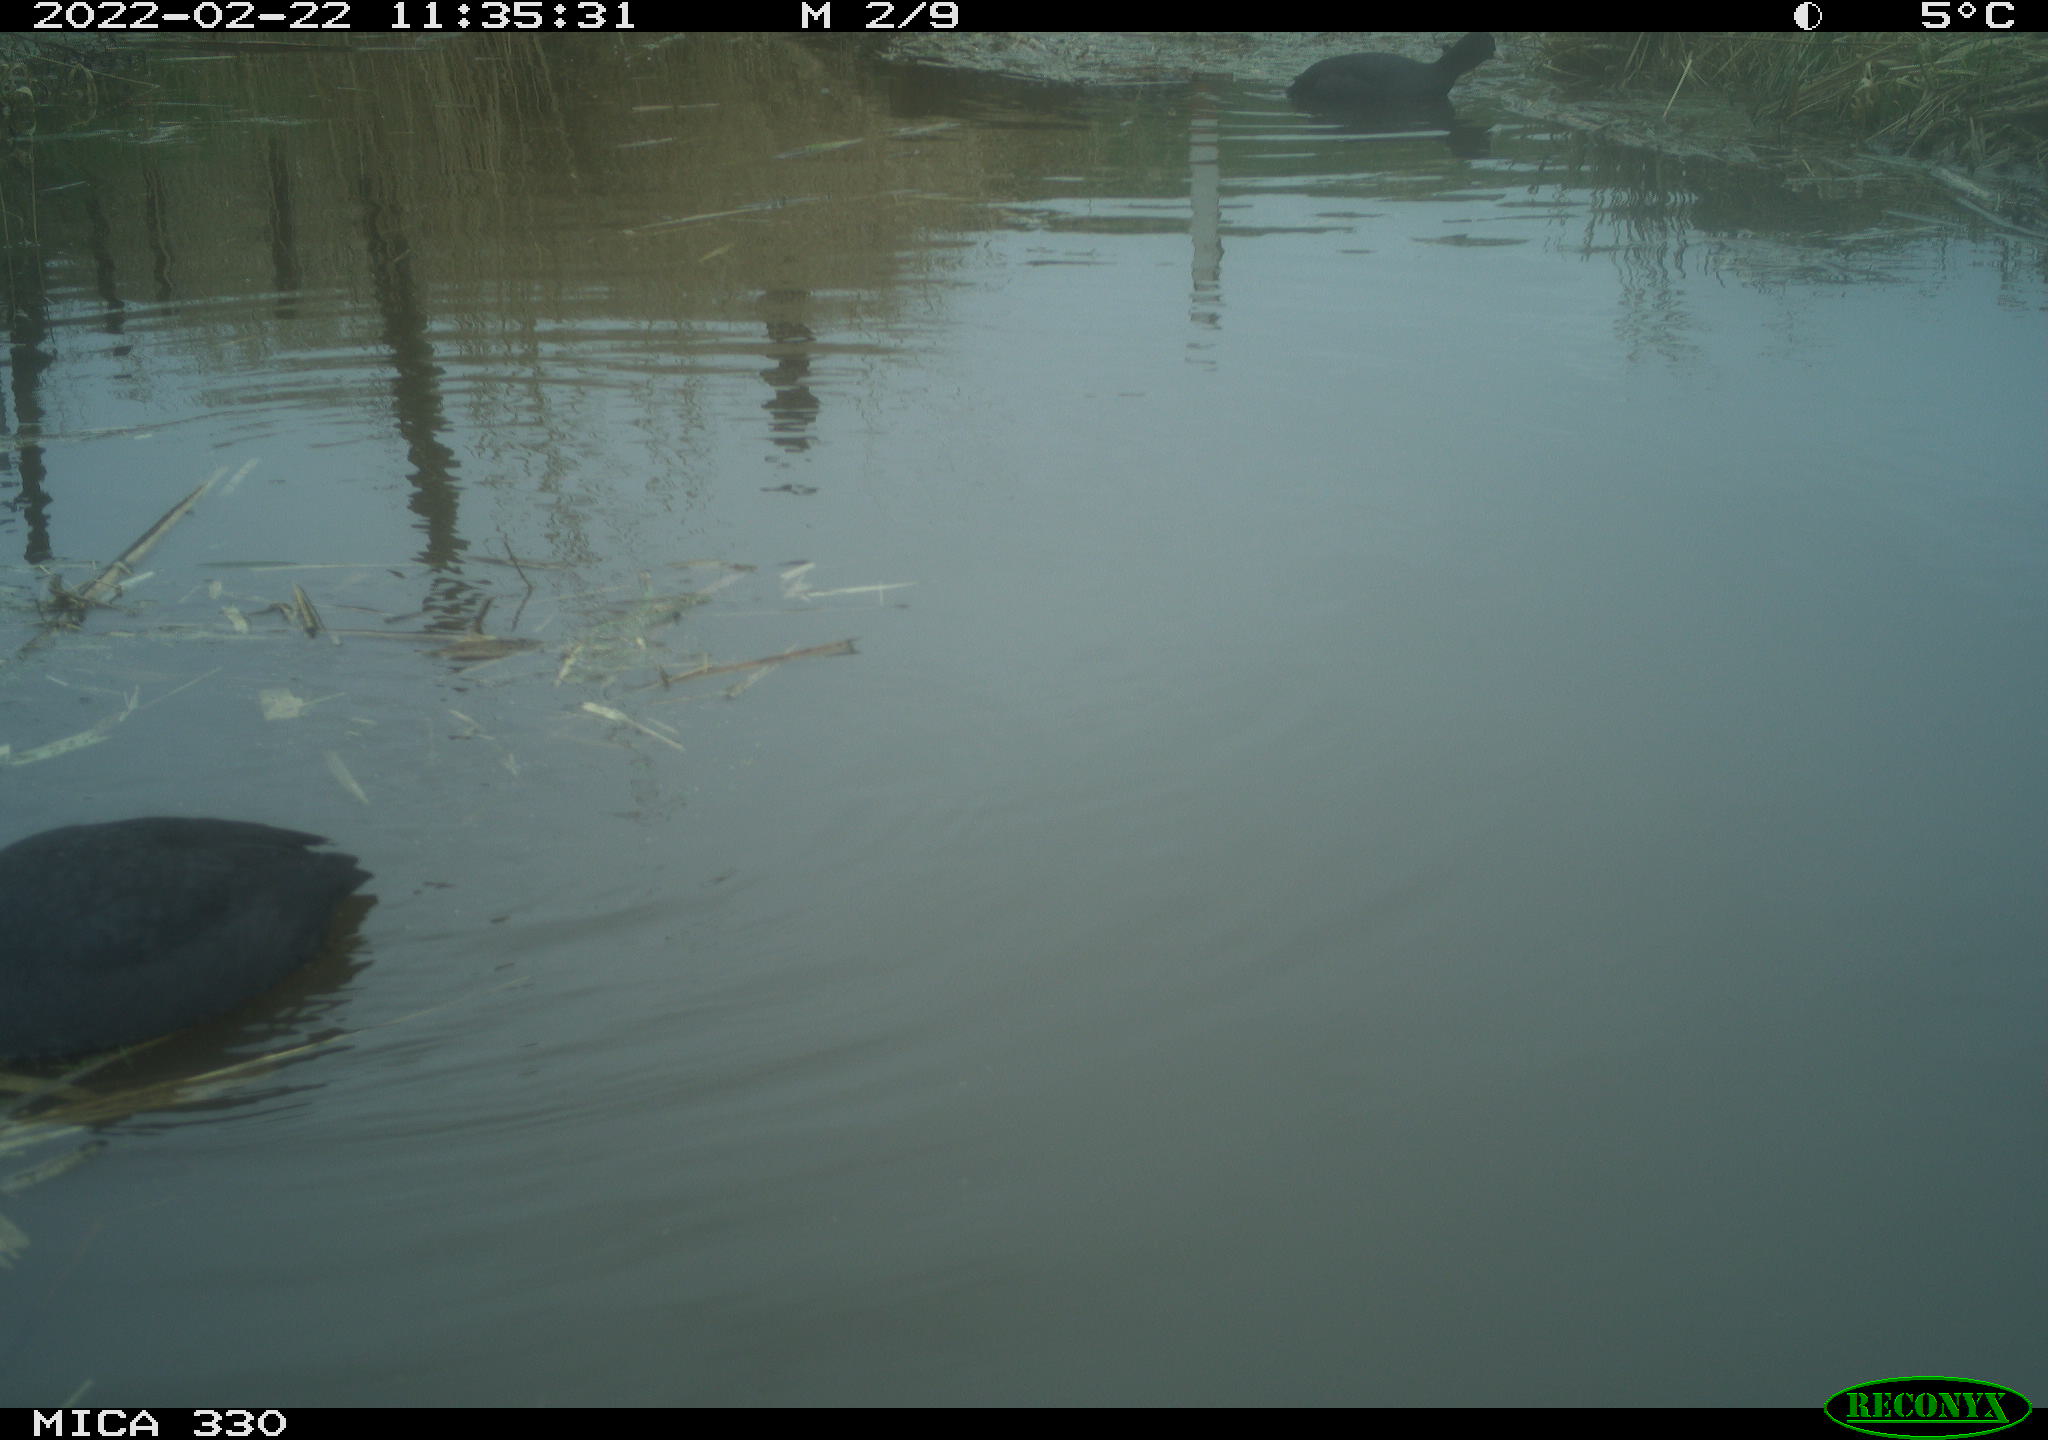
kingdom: Animalia
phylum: Chordata
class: Aves
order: Gruiformes
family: Rallidae
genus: Fulica
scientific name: Fulica atra
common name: Eurasian coot
